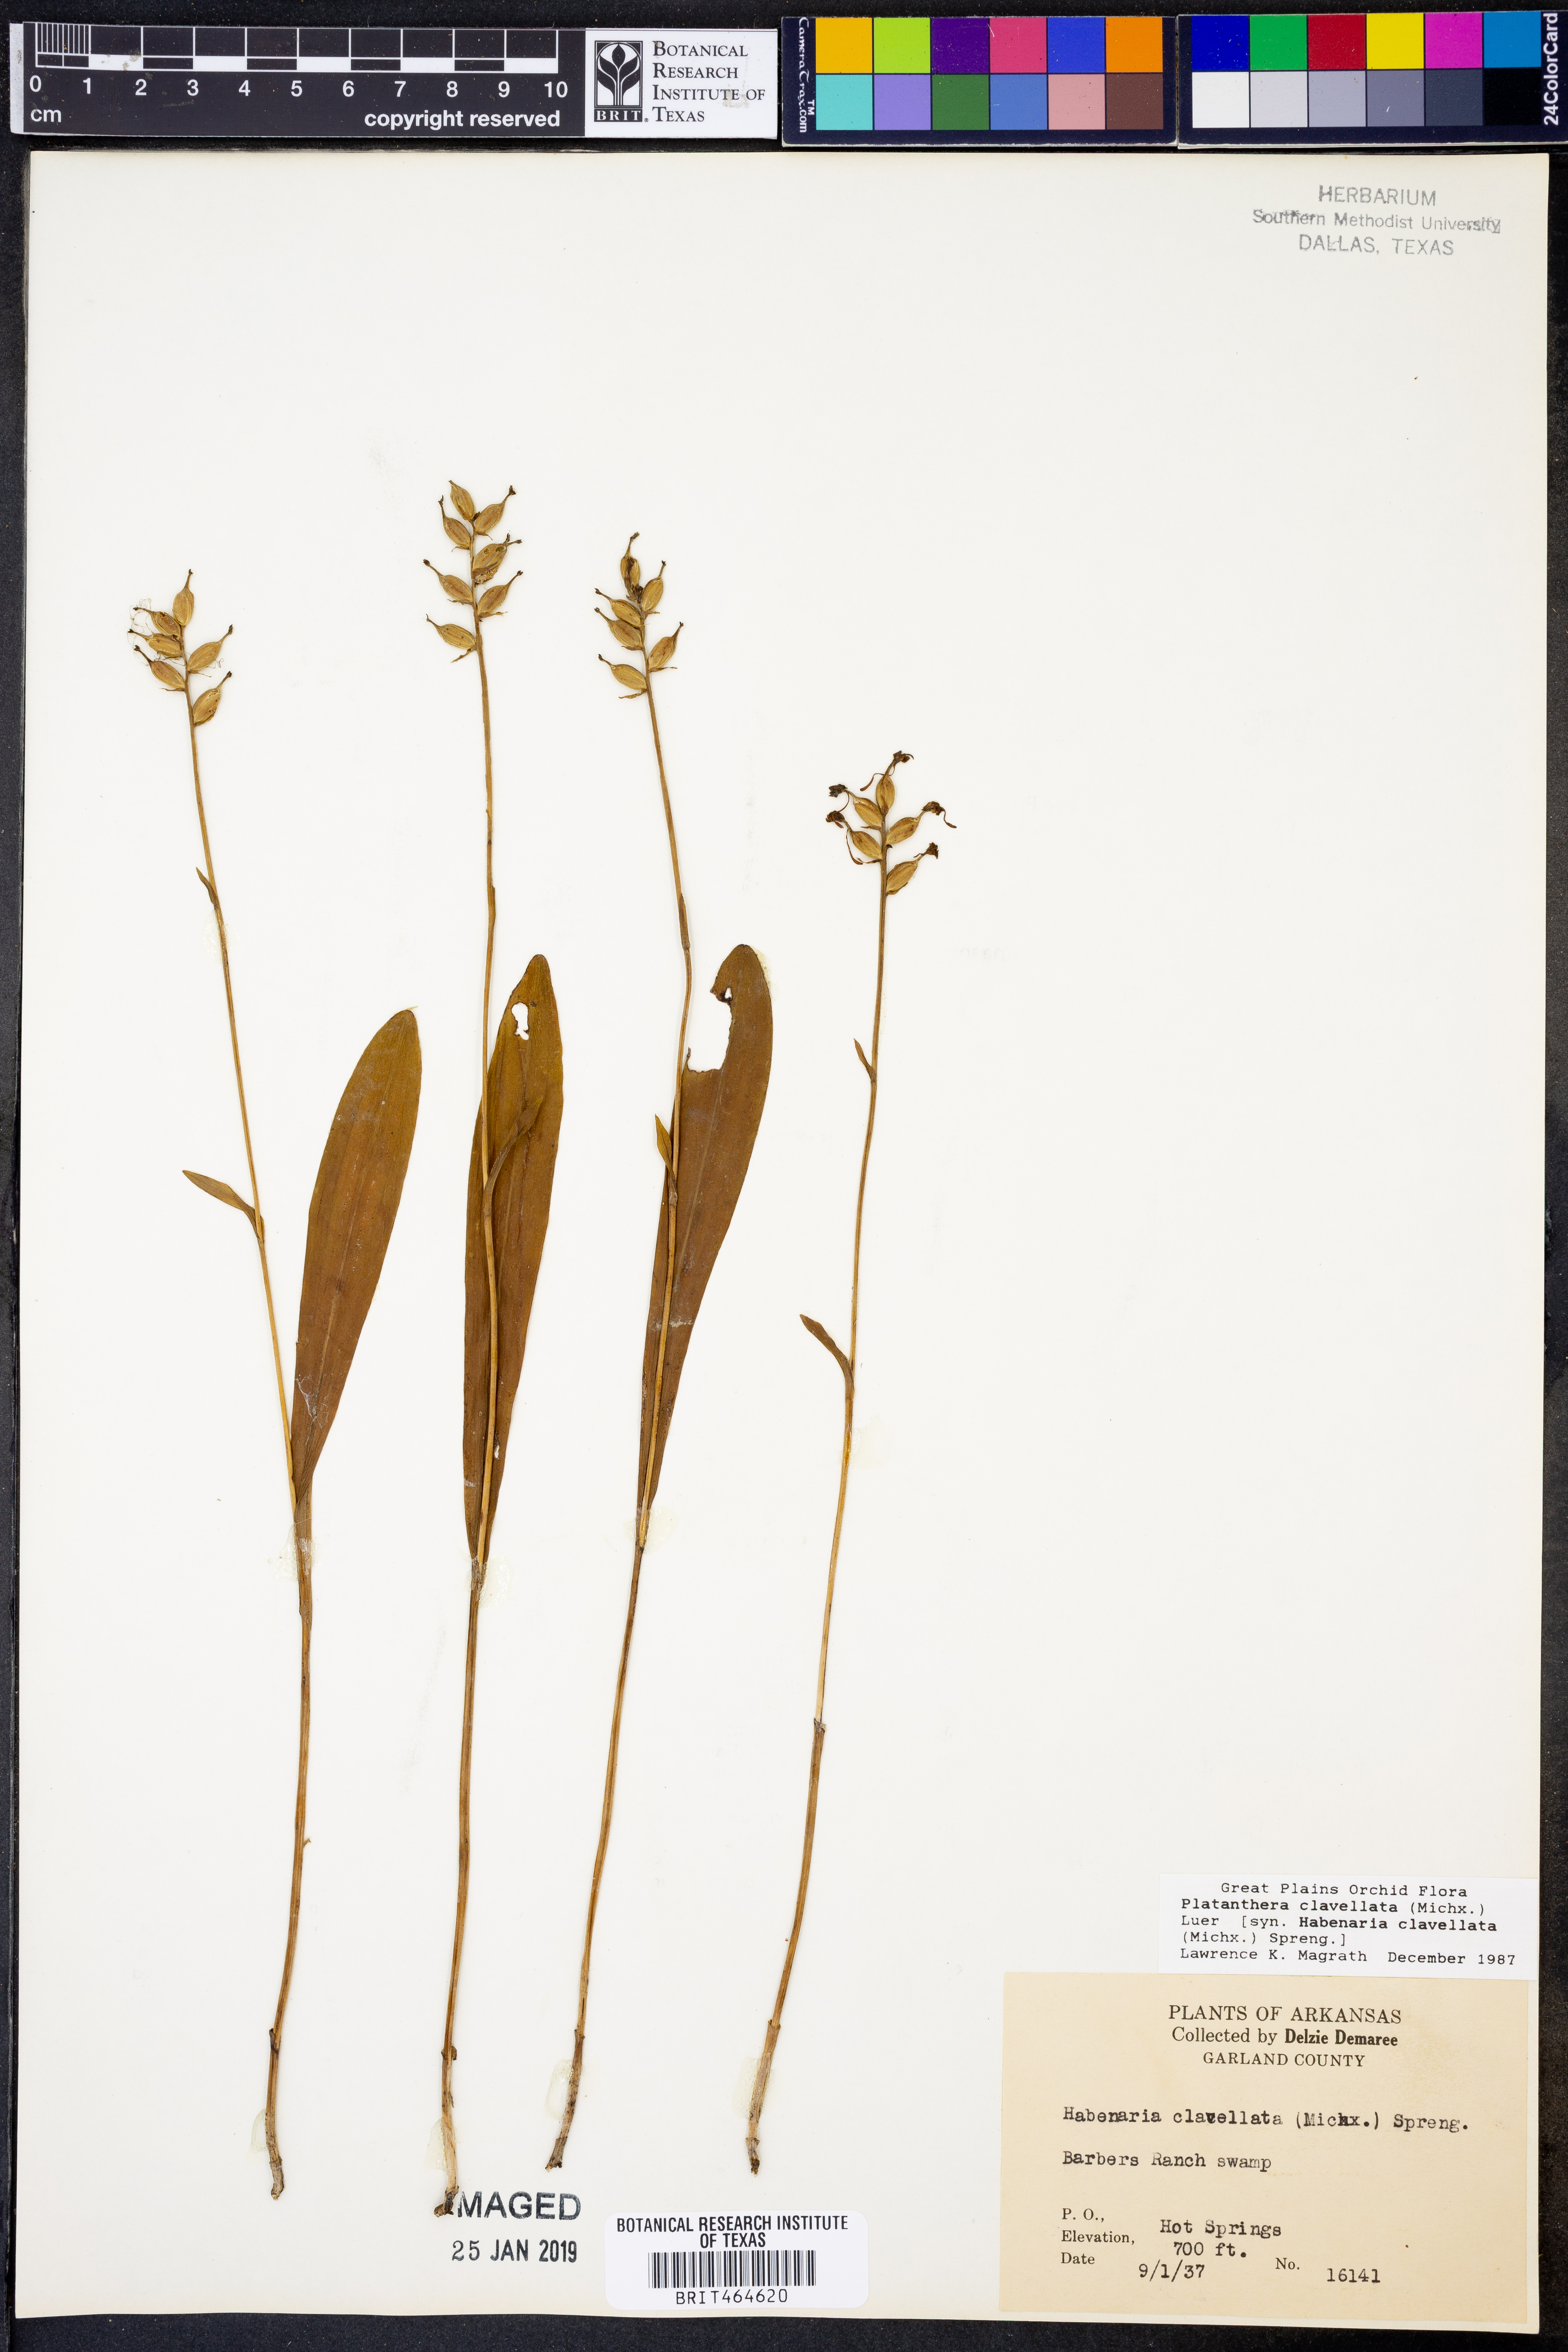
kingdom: Plantae
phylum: Tracheophyta
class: Liliopsida
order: Asparagales
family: Orchidaceae
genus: Platanthera
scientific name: Platanthera clavellata
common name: Club-spur orchid
